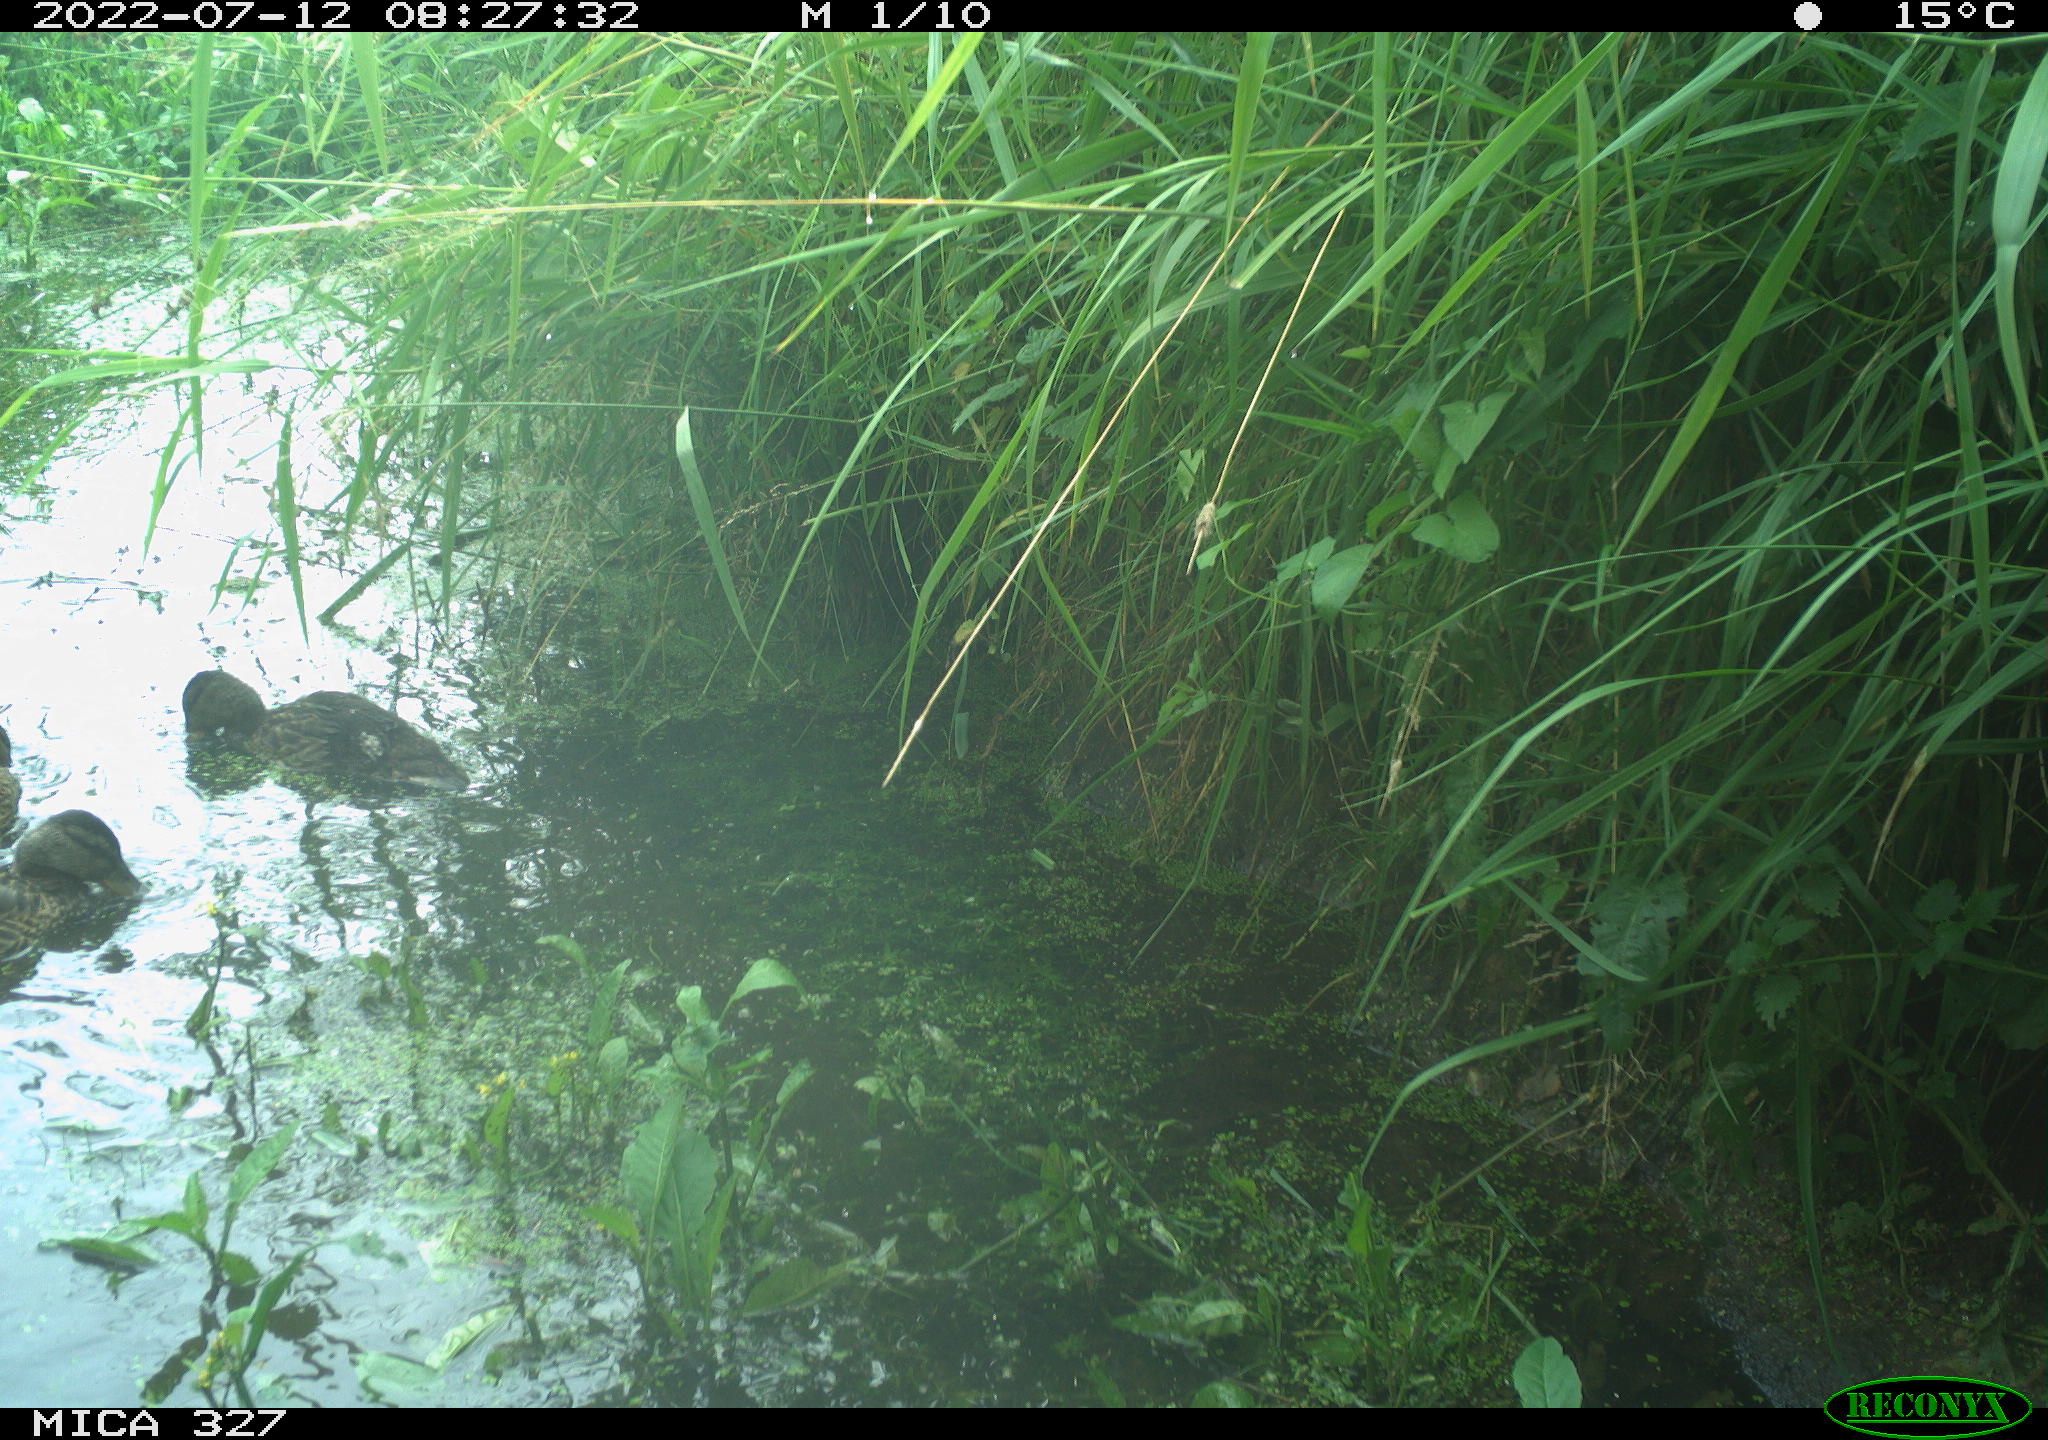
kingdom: Animalia
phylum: Chordata
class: Aves
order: Anseriformes
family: Anatidae
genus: Anas
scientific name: Anas platyrhynchos
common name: Mallard
